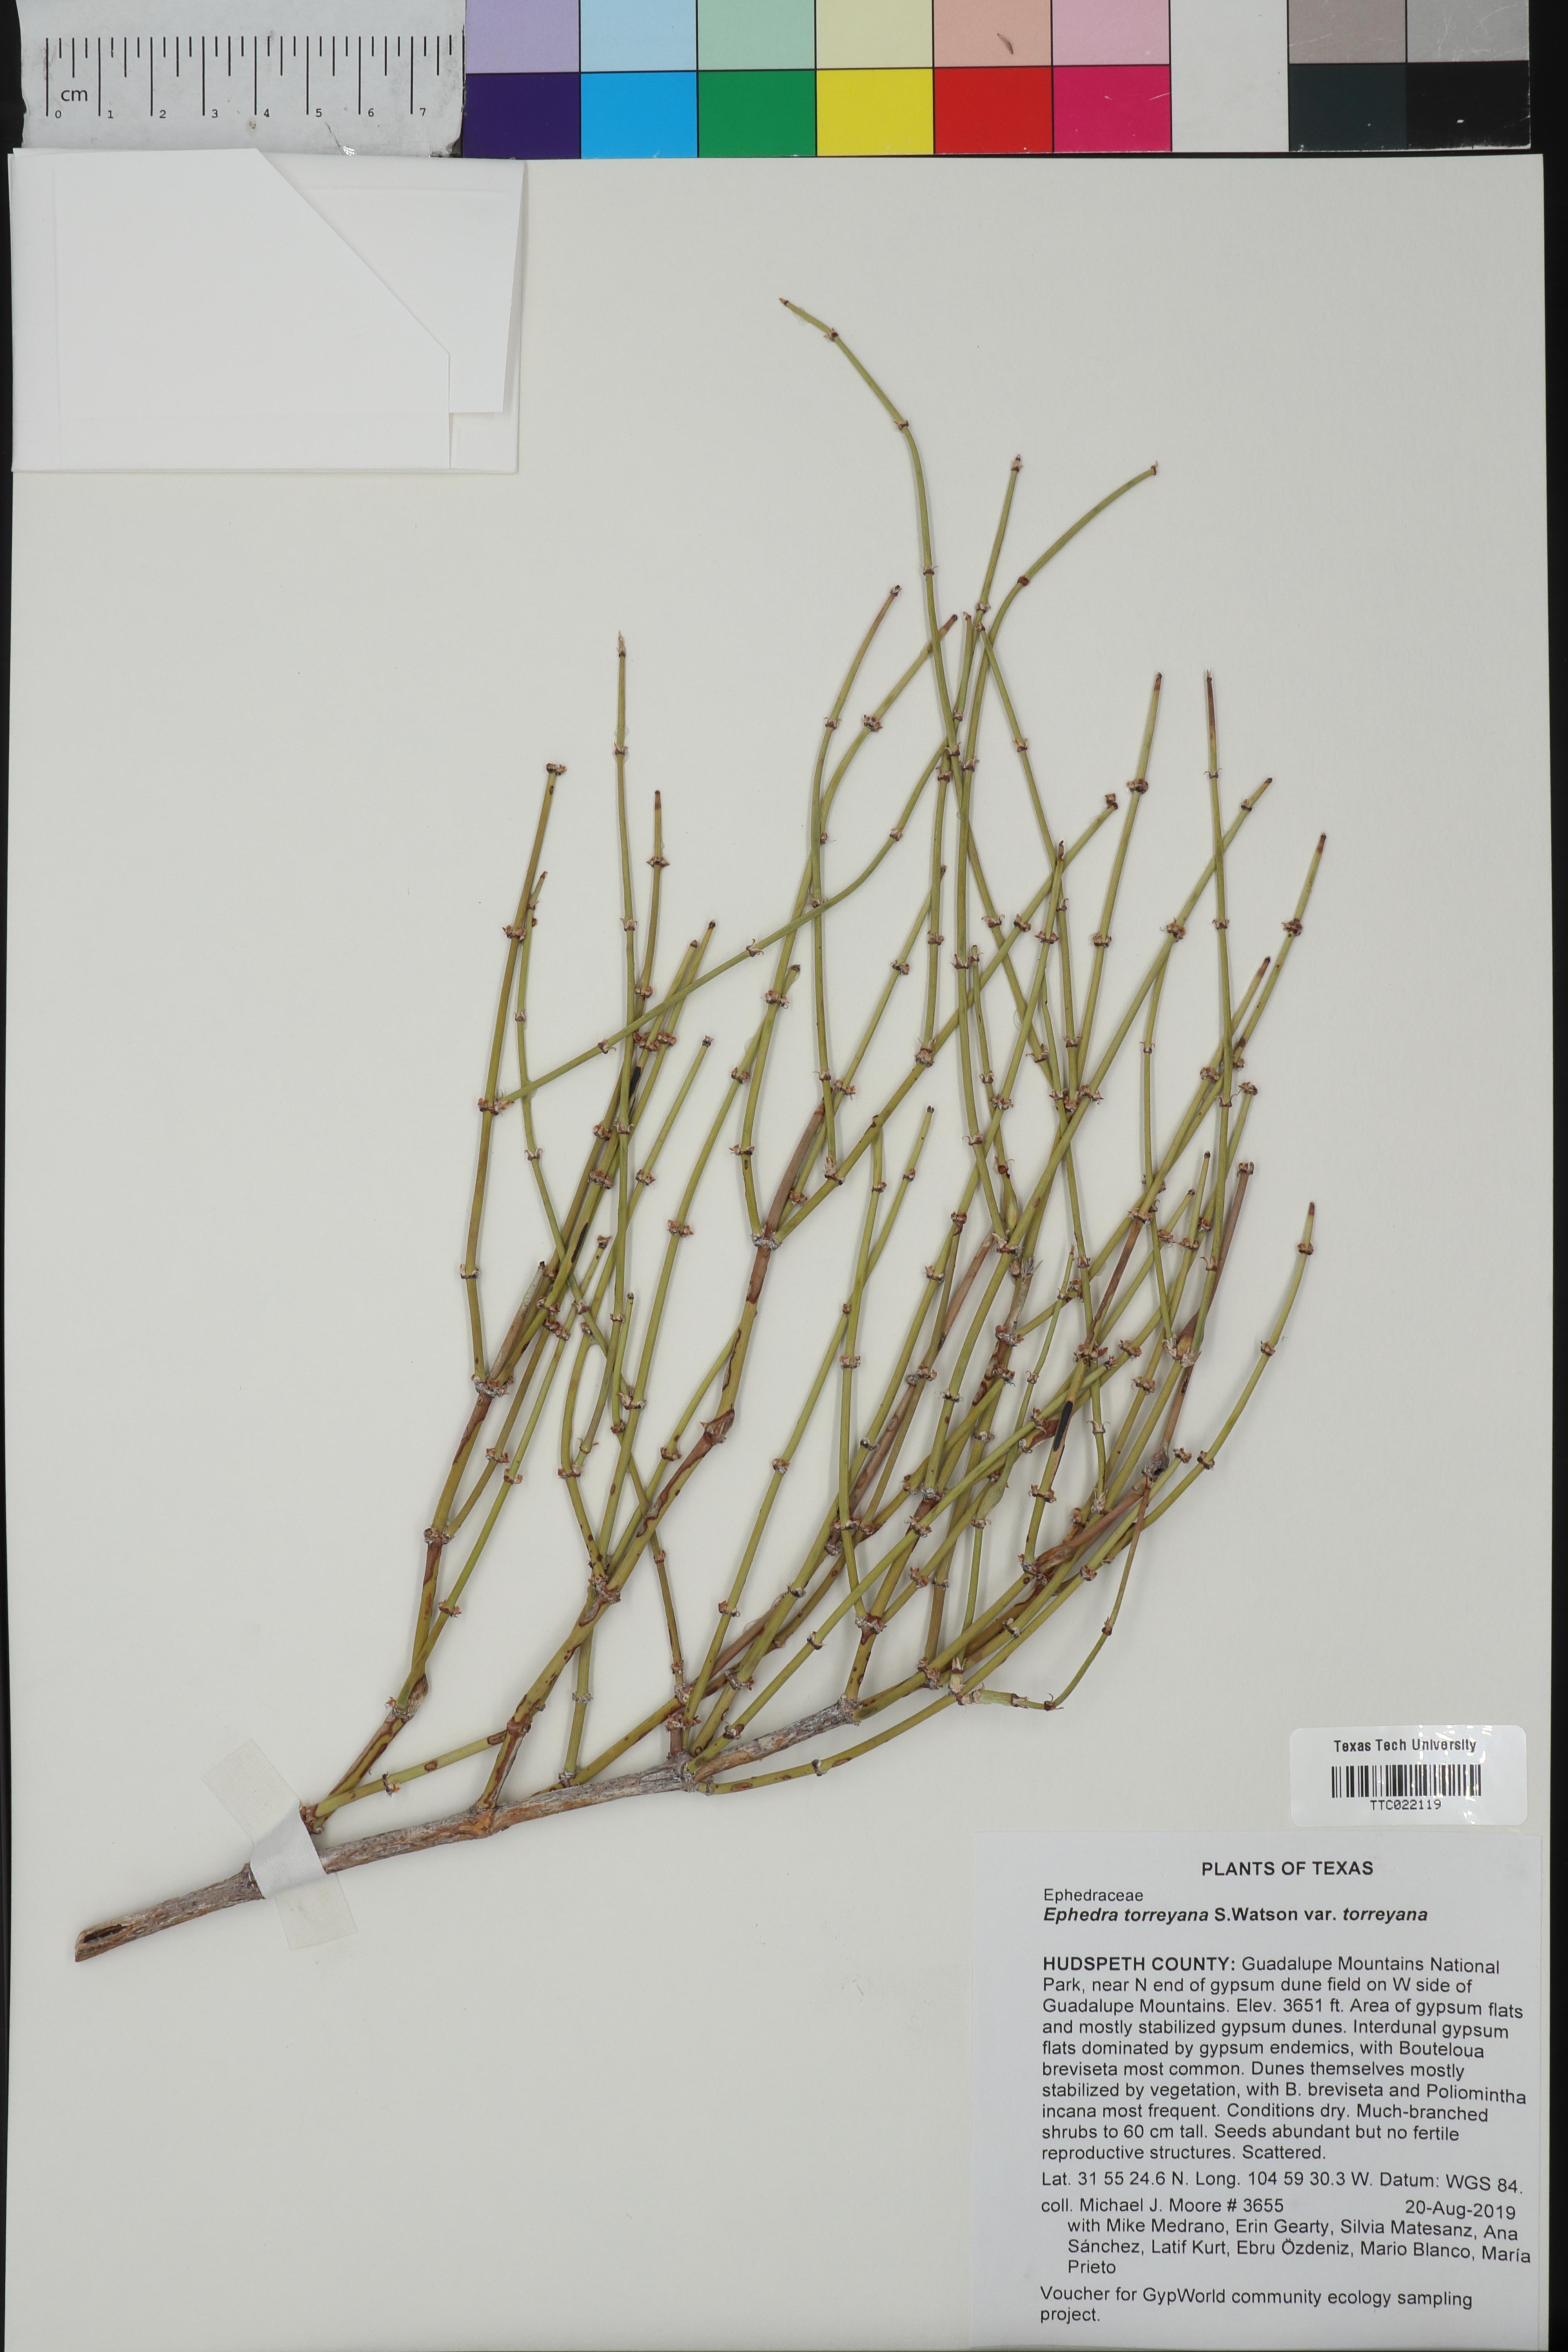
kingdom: Plantae
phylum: Tracheophyta
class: Gnetopsida
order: Ephedrales
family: Ephedraceae
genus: Ephedra
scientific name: Ephedra torreyana
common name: Torrey ephedra
